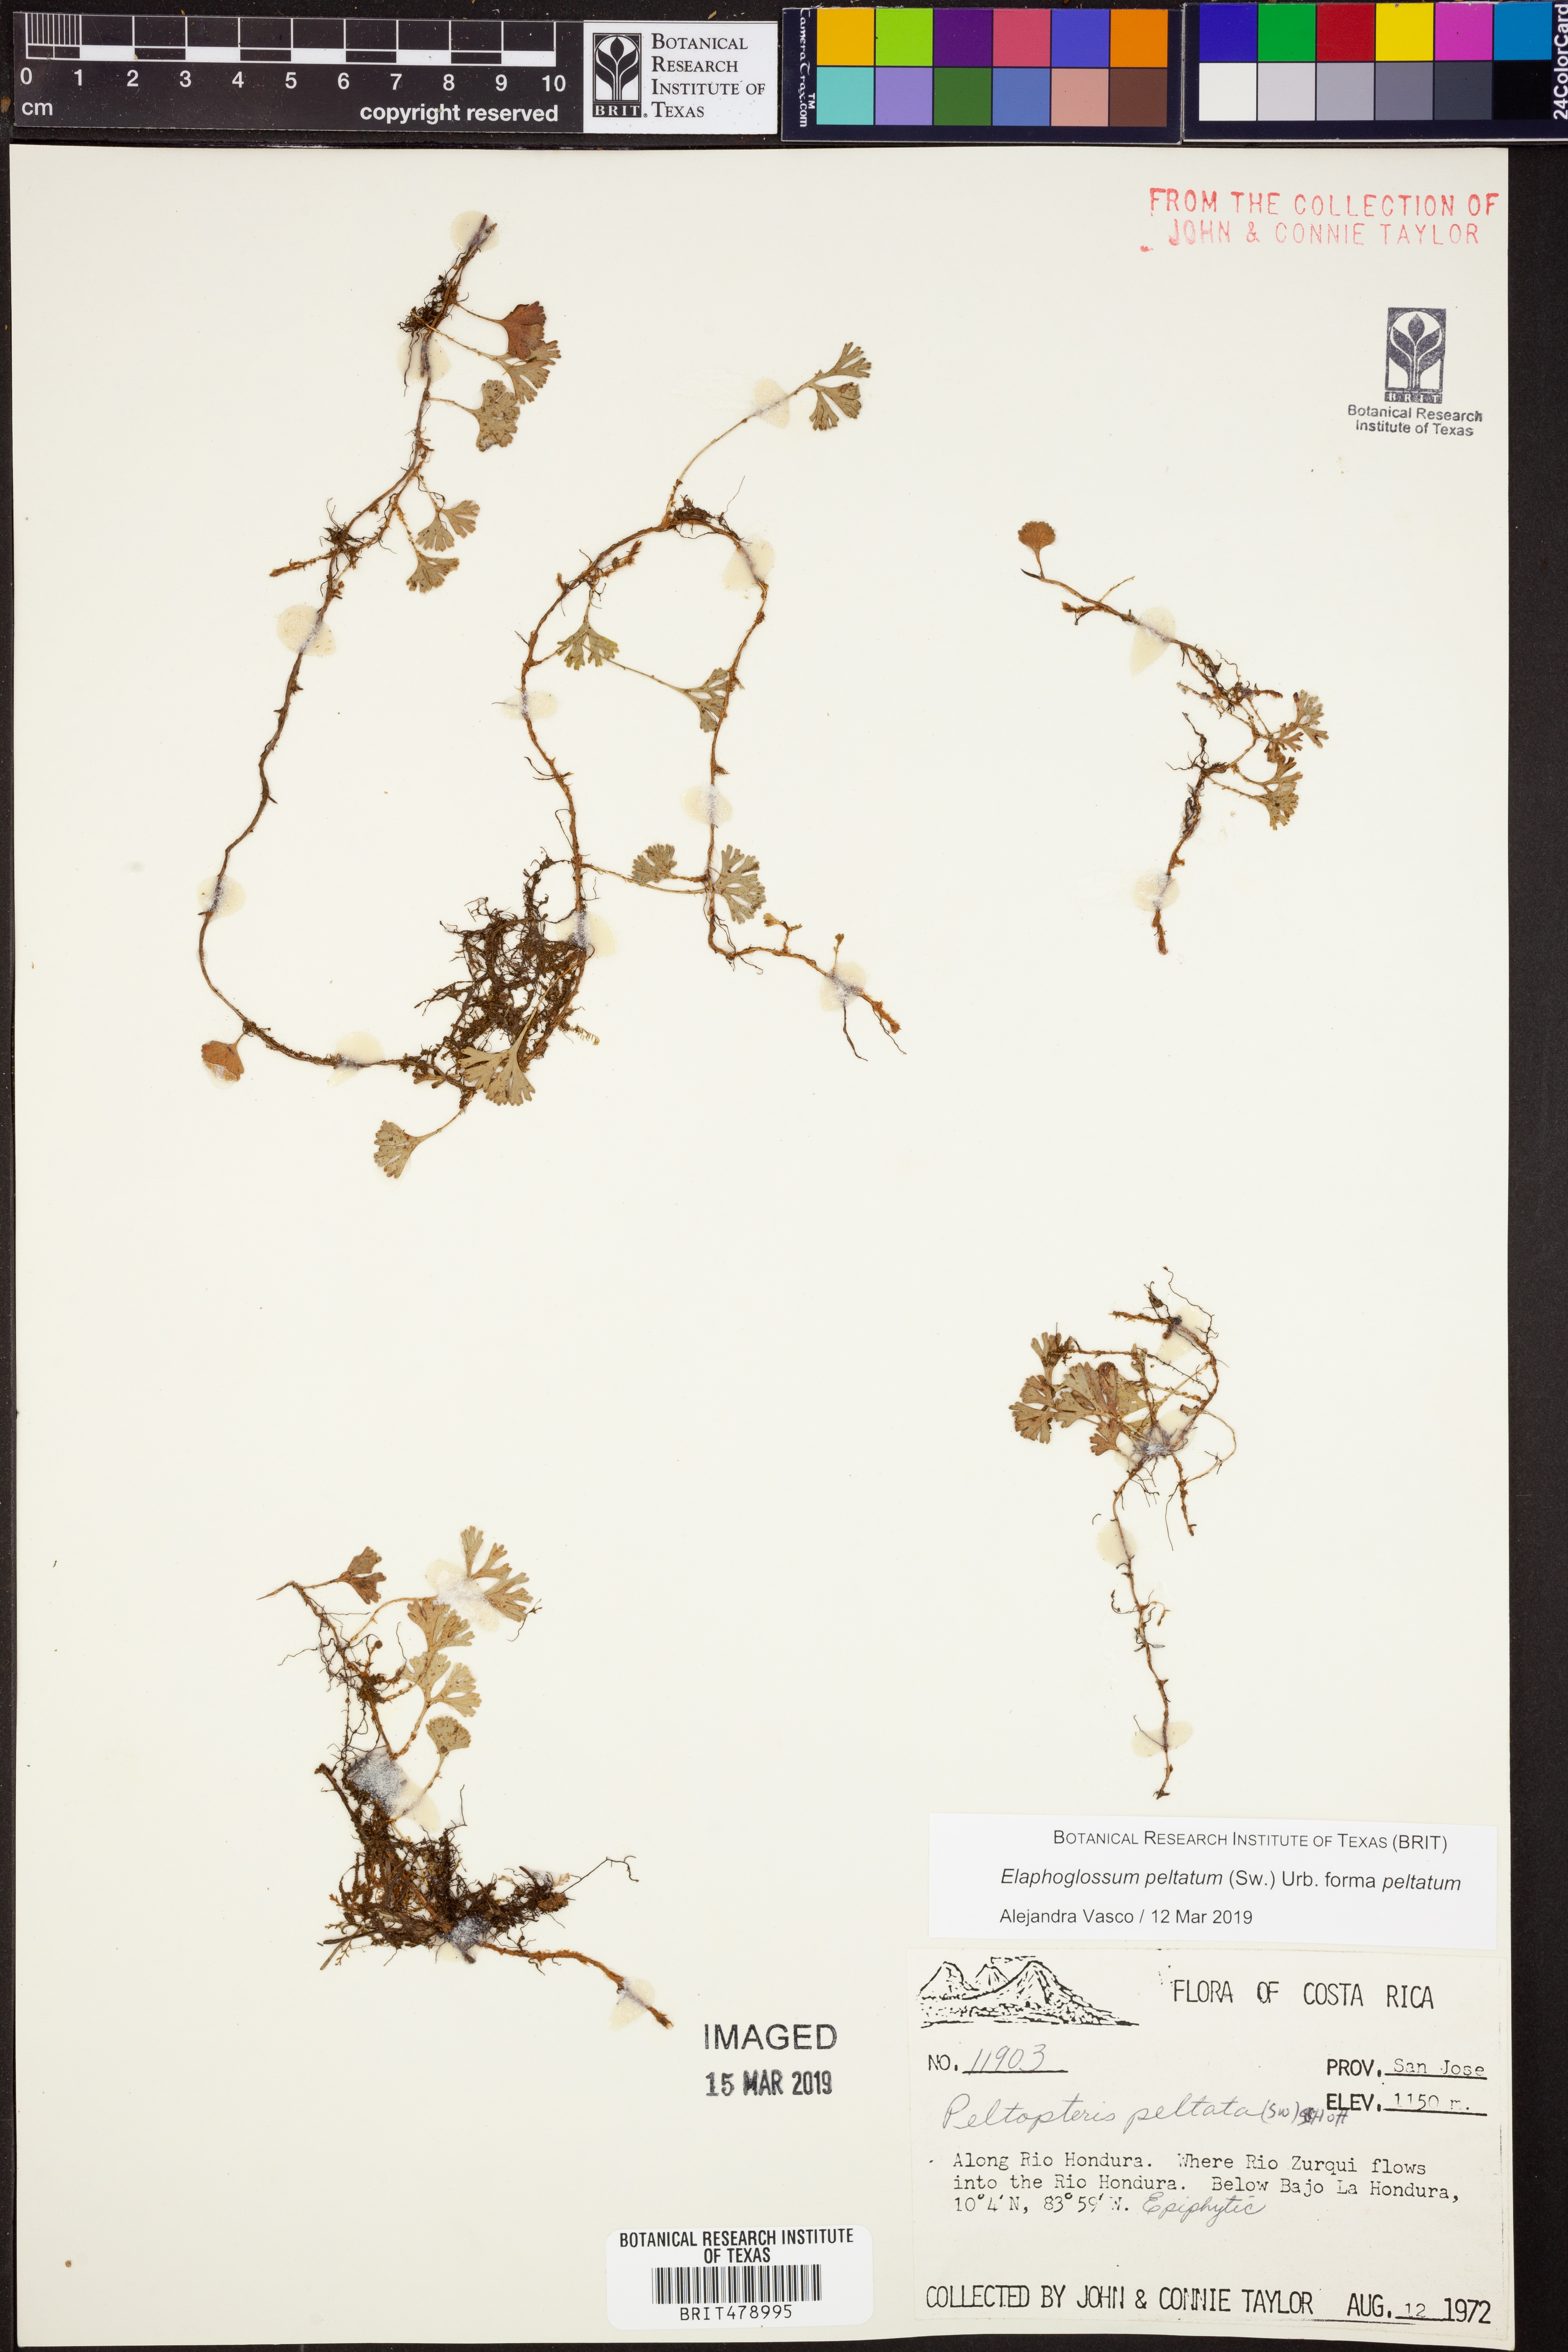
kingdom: Plantae
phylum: Tracheophyta
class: Polypodiopsida
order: Polypodiales
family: Dryopteridaceae
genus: Elaphoglossum
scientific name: Elaphoglossum peltatum
